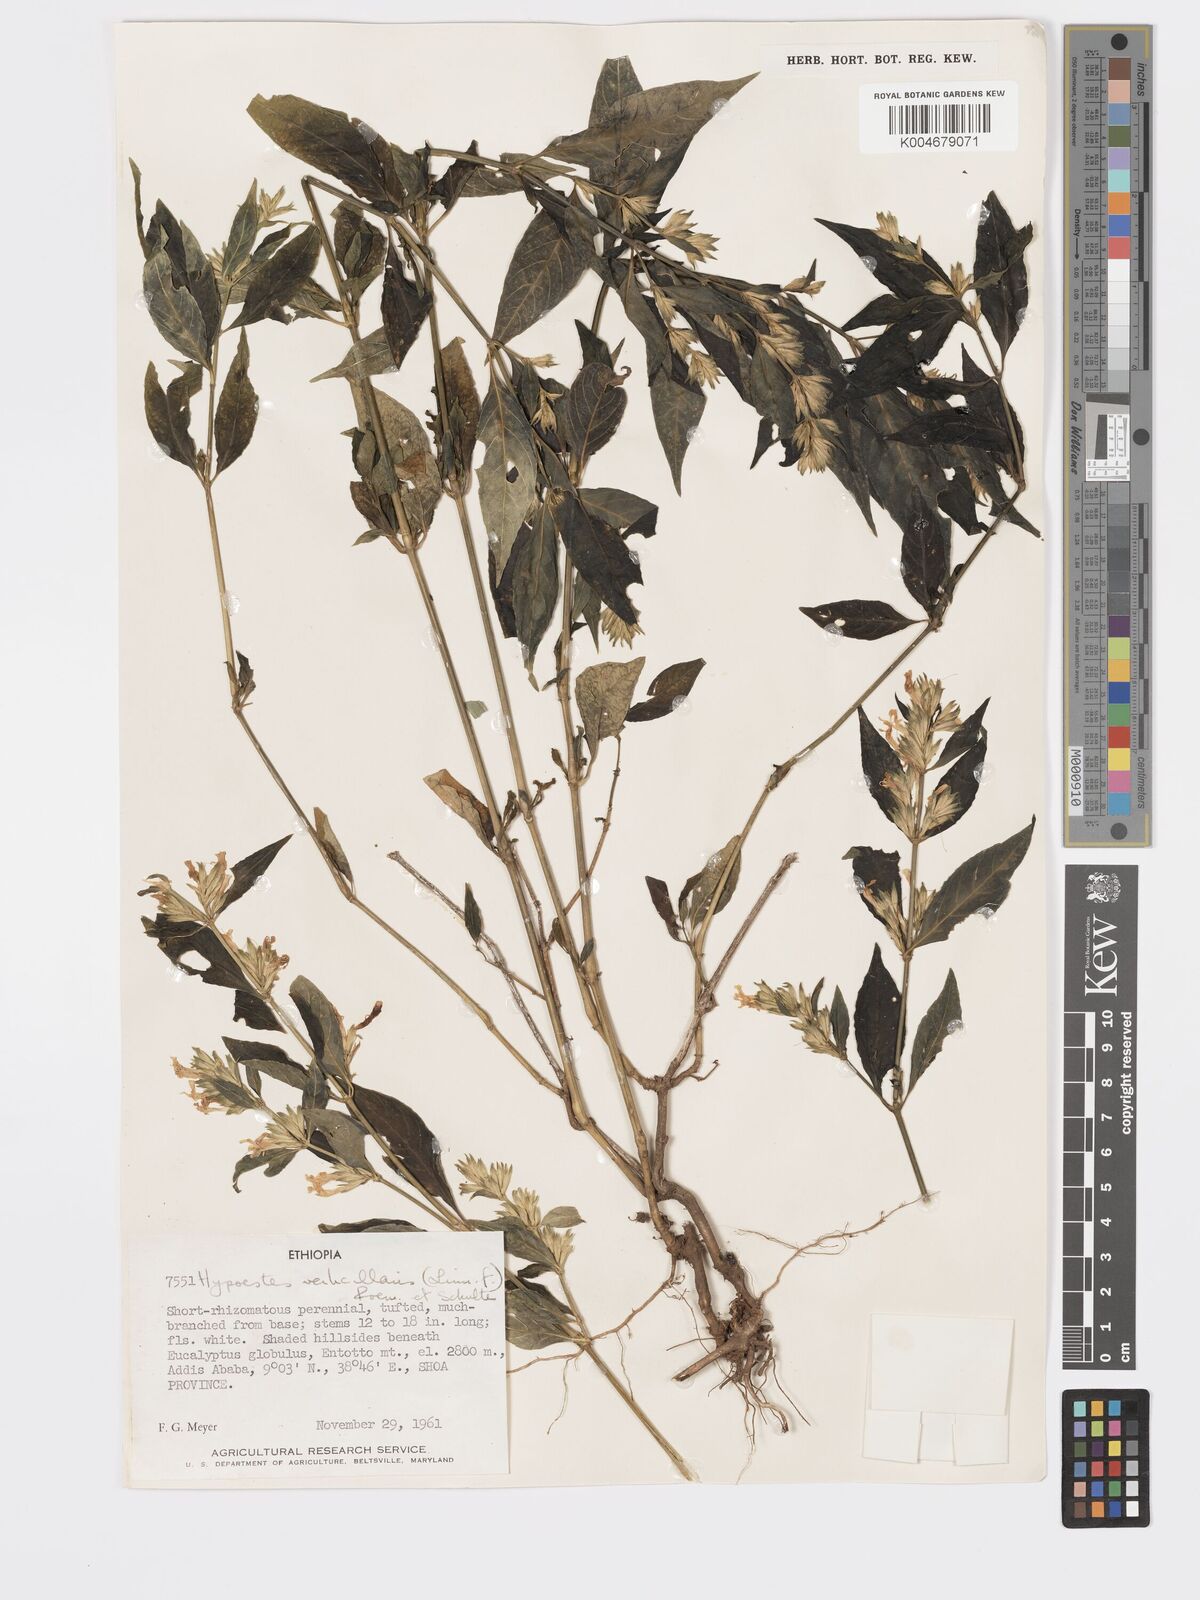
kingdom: Plantae
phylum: Tracheophyta
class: Magnoliopsida
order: Lamiales
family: Acanthaceae
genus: Hypoestes
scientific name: Hypoestes forskaolii
